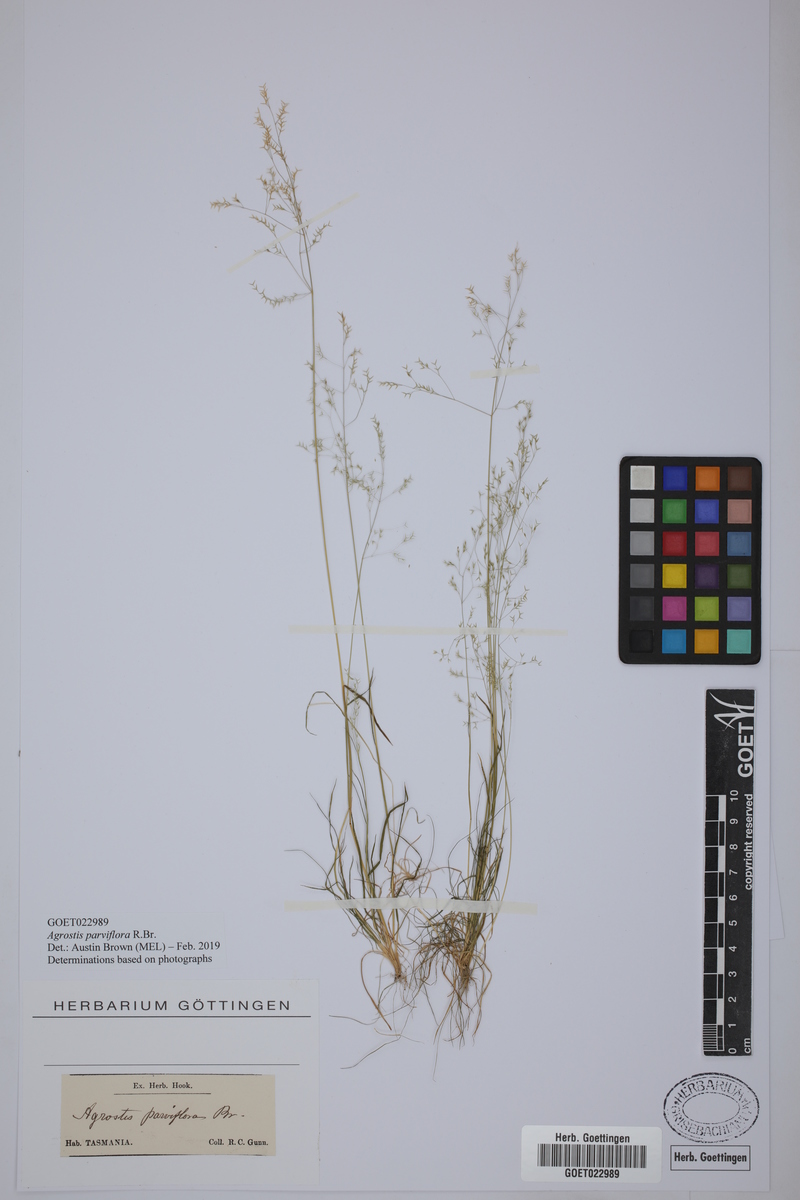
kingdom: Plantae
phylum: Tracheophyta
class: Liliopsida
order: Poales
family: Poaceae
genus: Agrostis
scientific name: Agrostis parviflora
